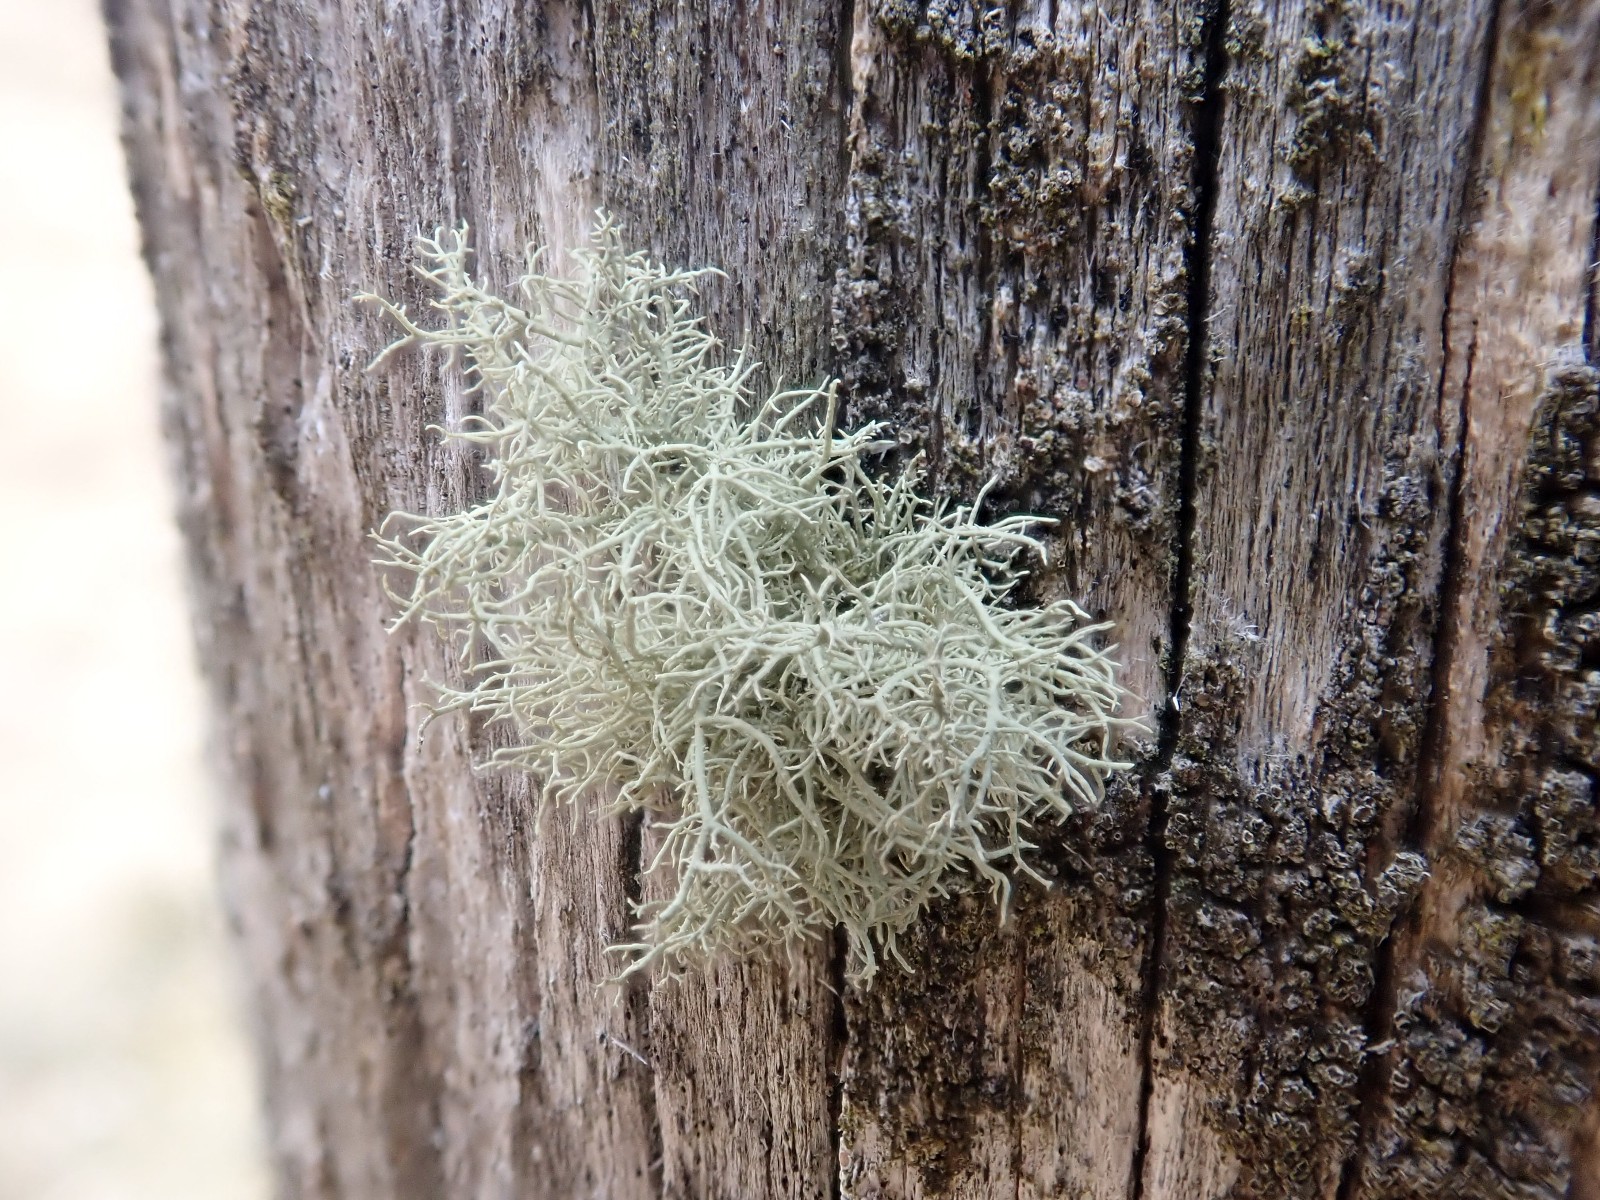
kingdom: Fungi
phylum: Ascomycota
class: Lecanoromycetes
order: Lecanorales
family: Parmeliaceae
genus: Usnea
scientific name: Usnea hirta
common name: liden skæglav
